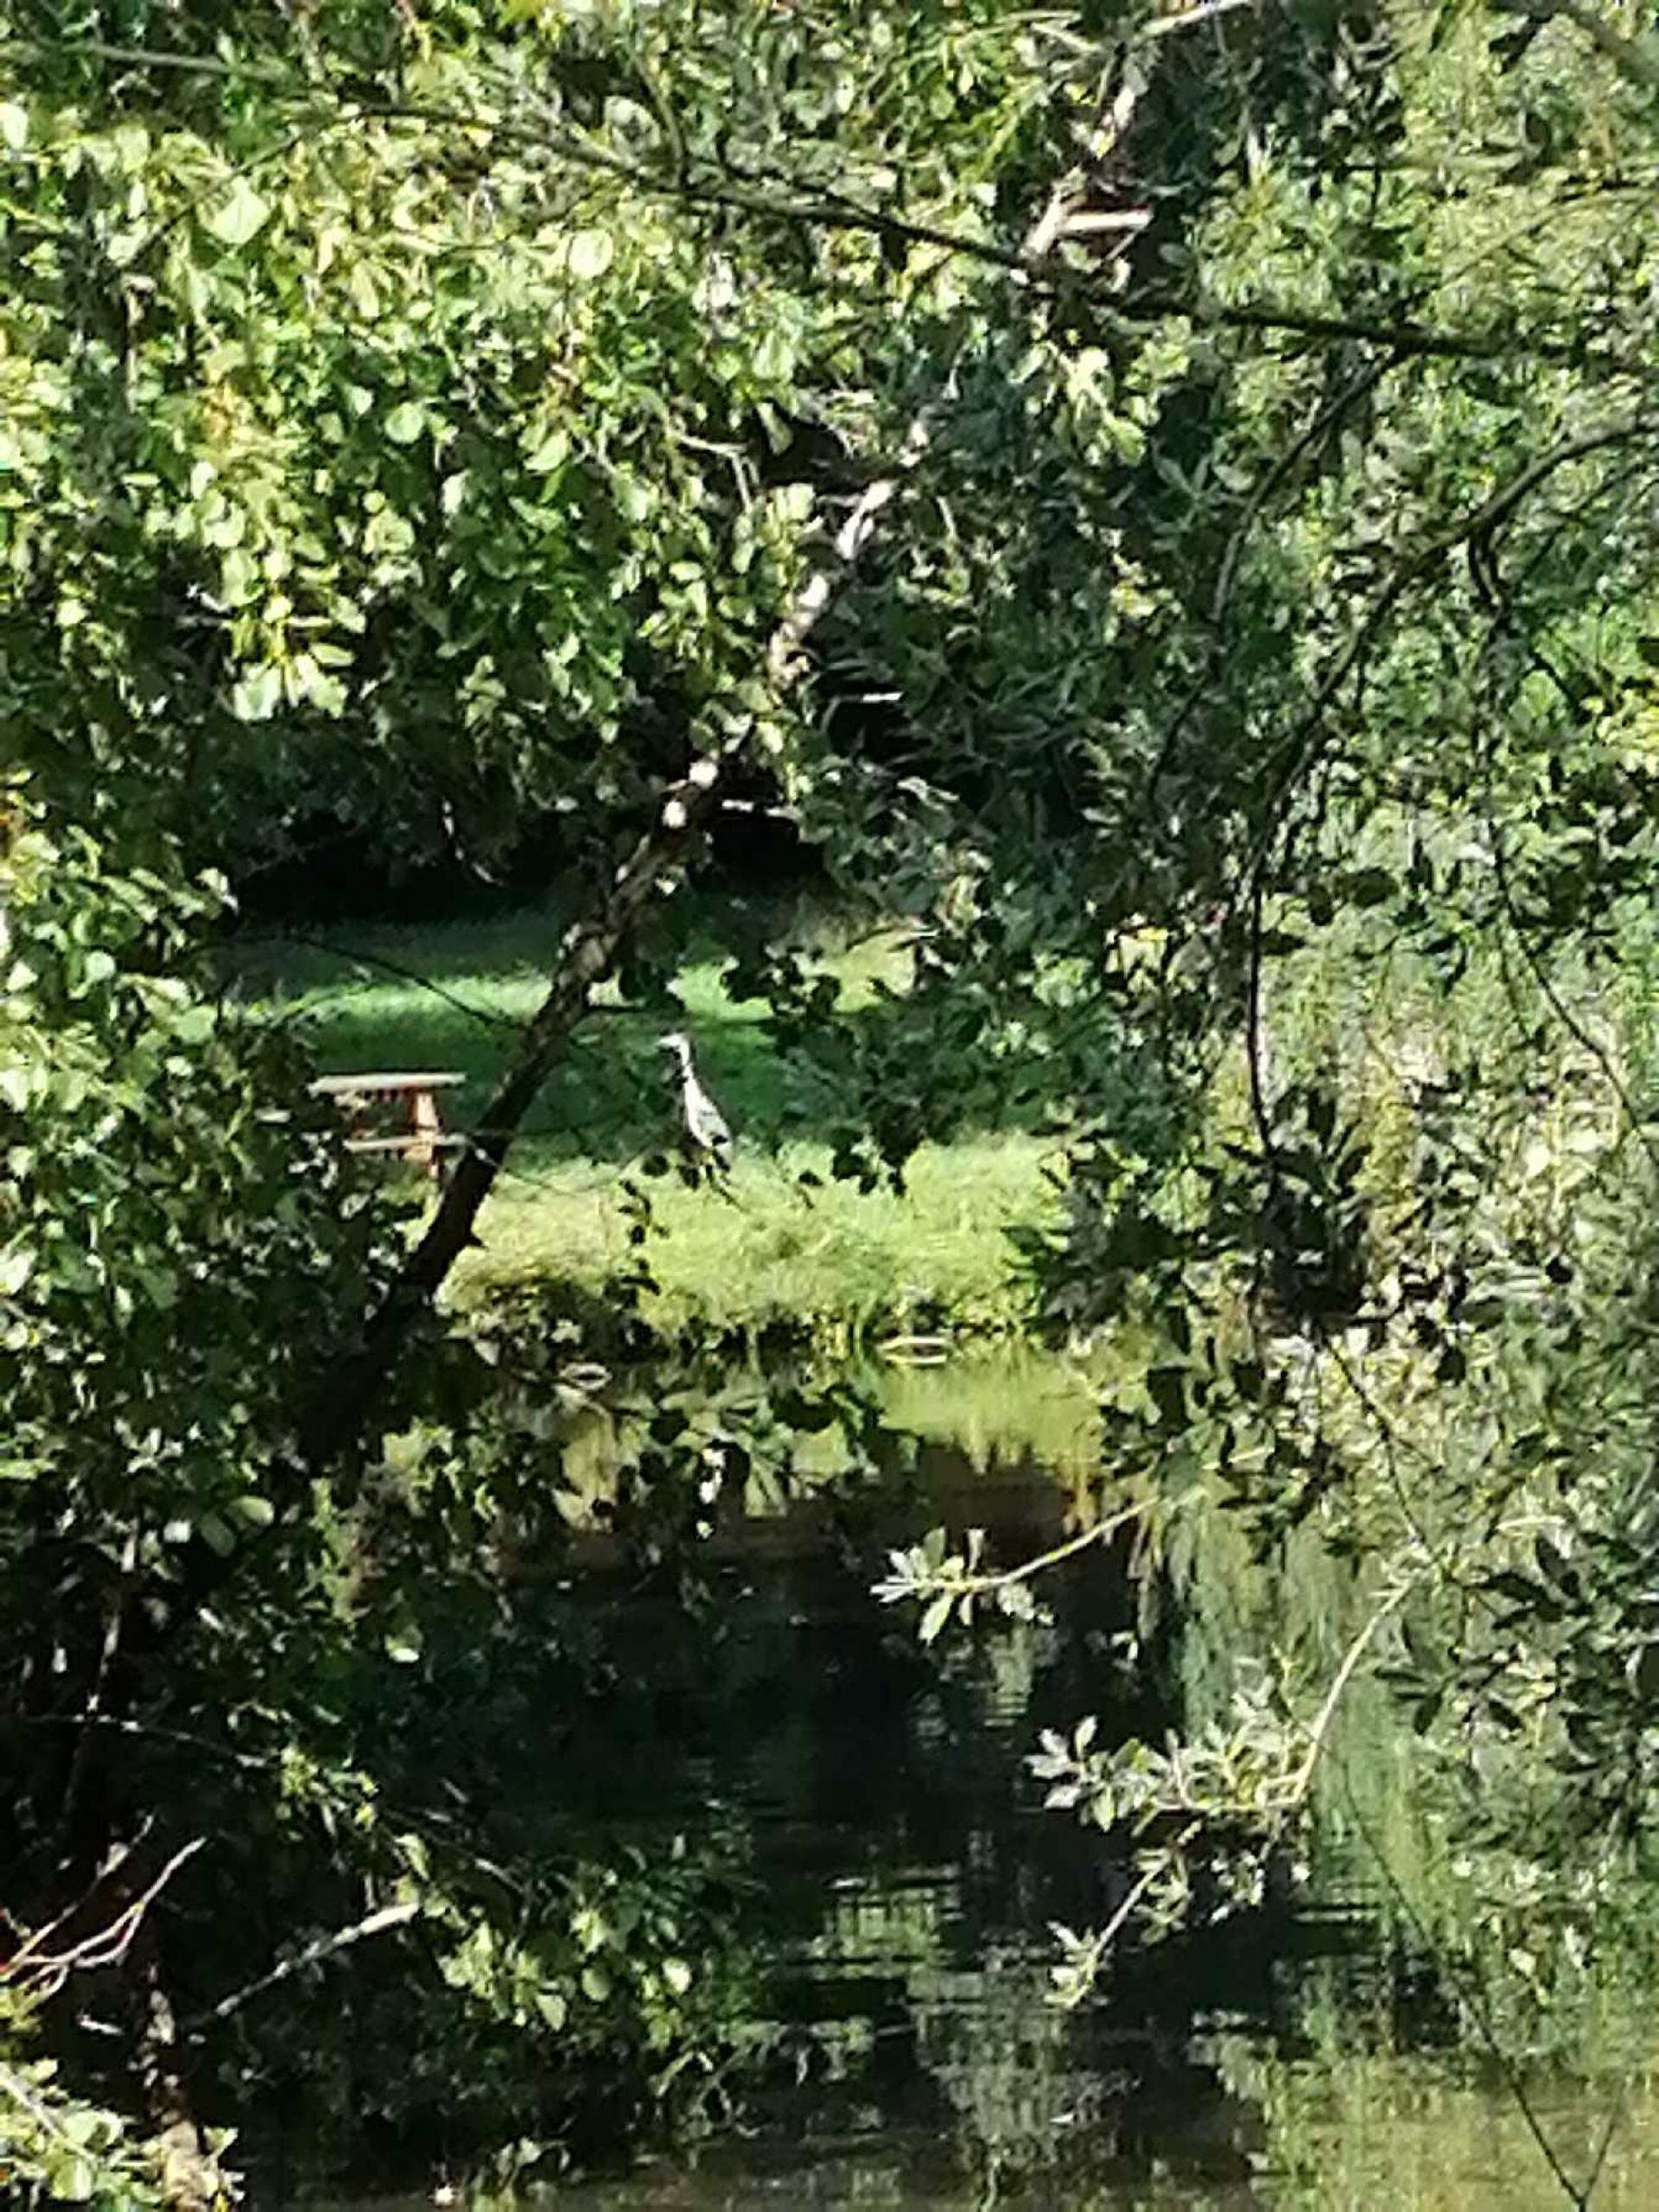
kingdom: Animalia
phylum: Chordata
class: Aves
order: Pelecaniformes
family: Ardeidae
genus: Ardea
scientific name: Ardea cinerea
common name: Fiskehejre
